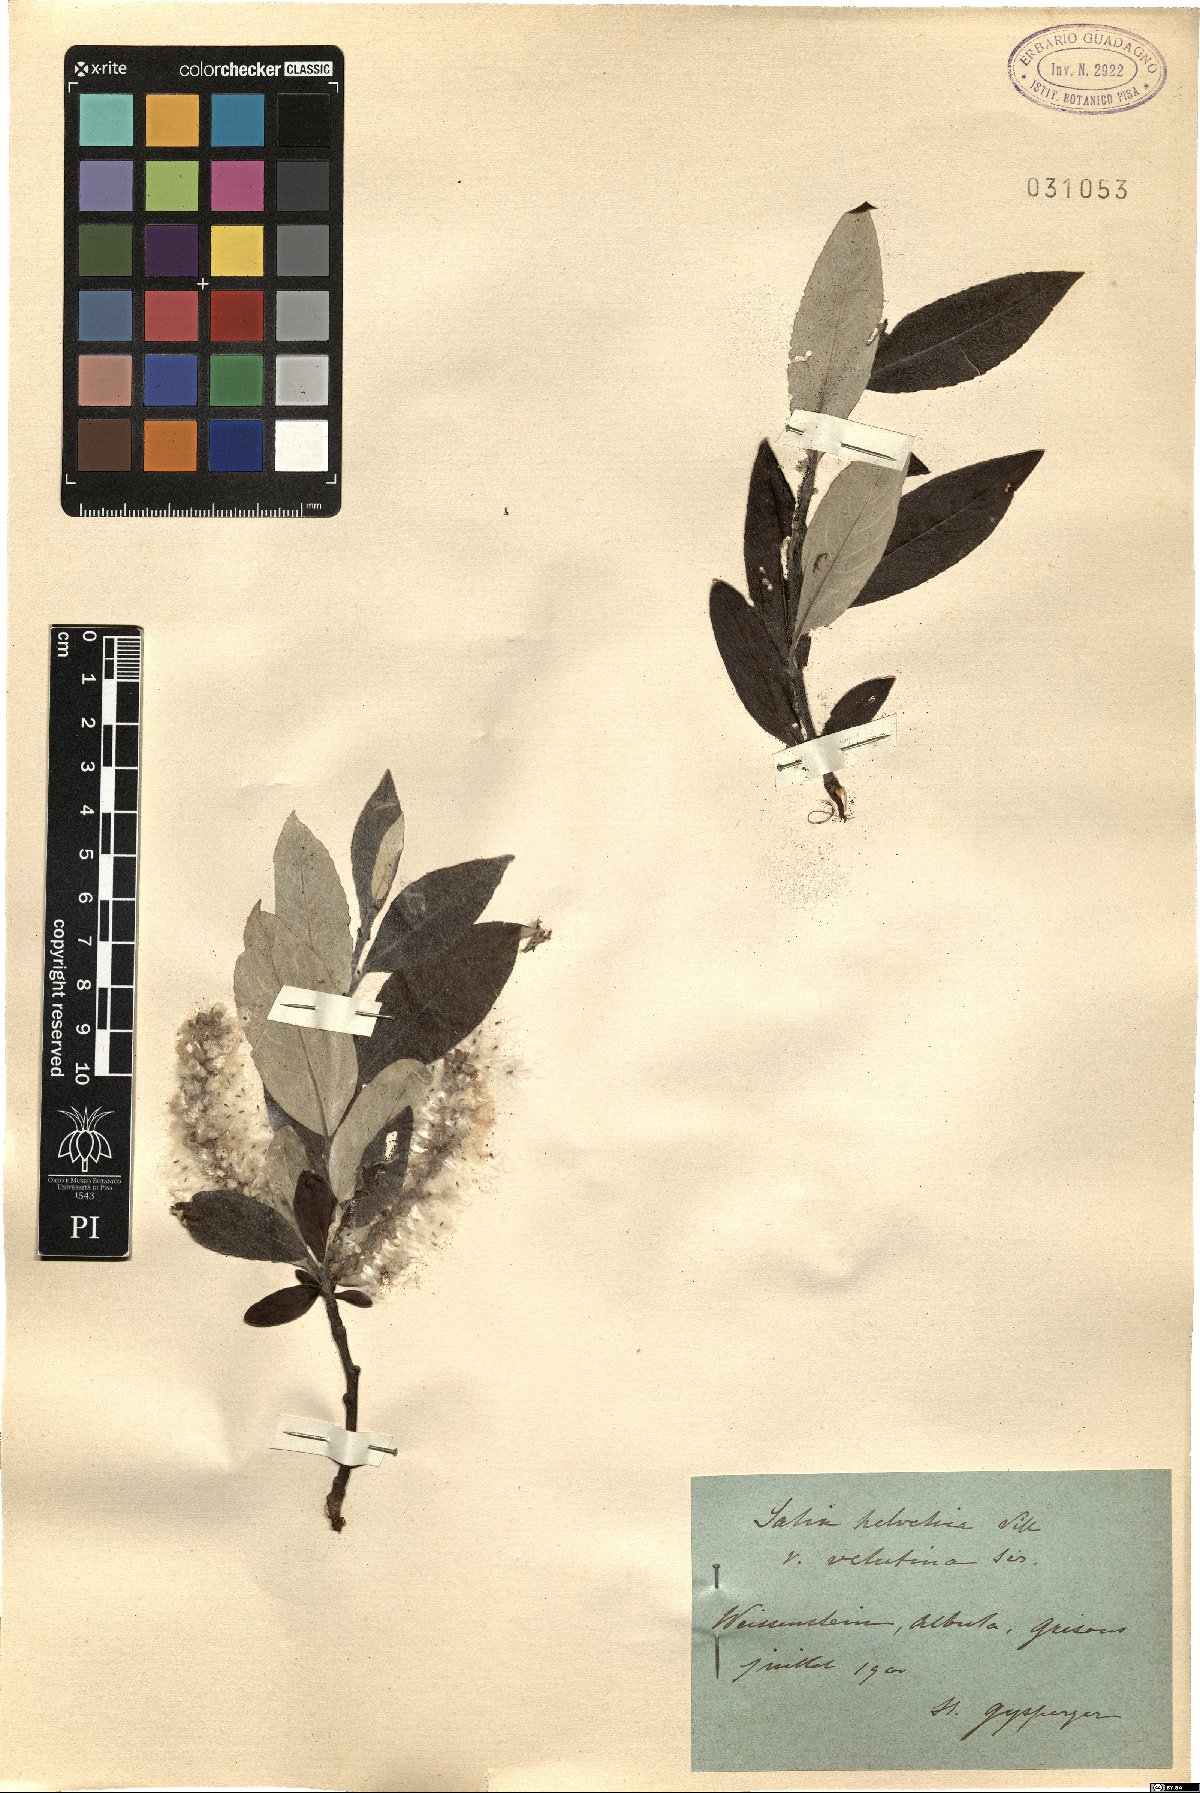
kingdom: Plantae
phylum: Tracheophyta
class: Magnoliopsida
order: Malpighiales
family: Salicaceae
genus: Salix
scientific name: Salix helvetica
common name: Swiss willow
